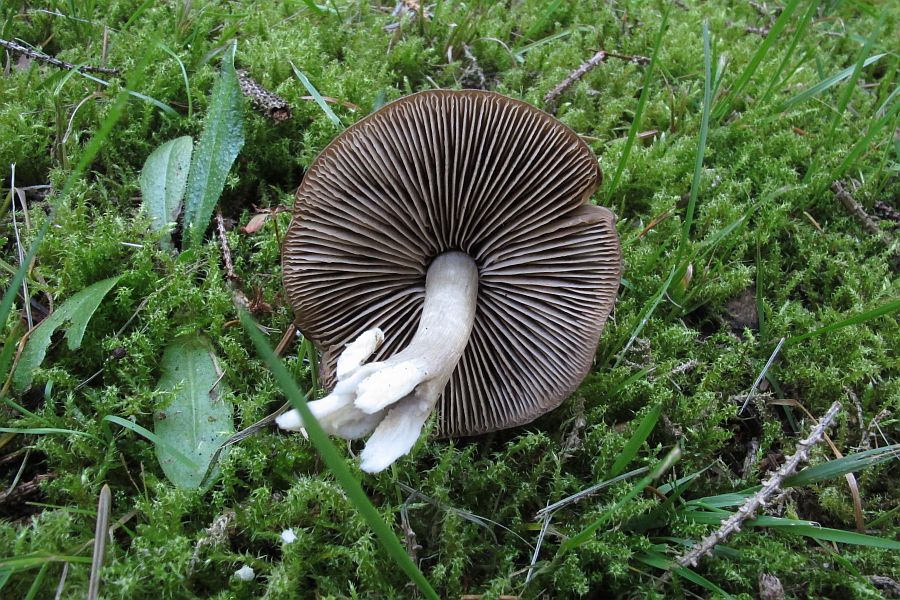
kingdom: Fungi
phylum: Basidiomycota
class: Agaricomycetes
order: Agaricales
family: Entolomataceae
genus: Entocybe
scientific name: Entocybe turbida
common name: plantage-rødblad
